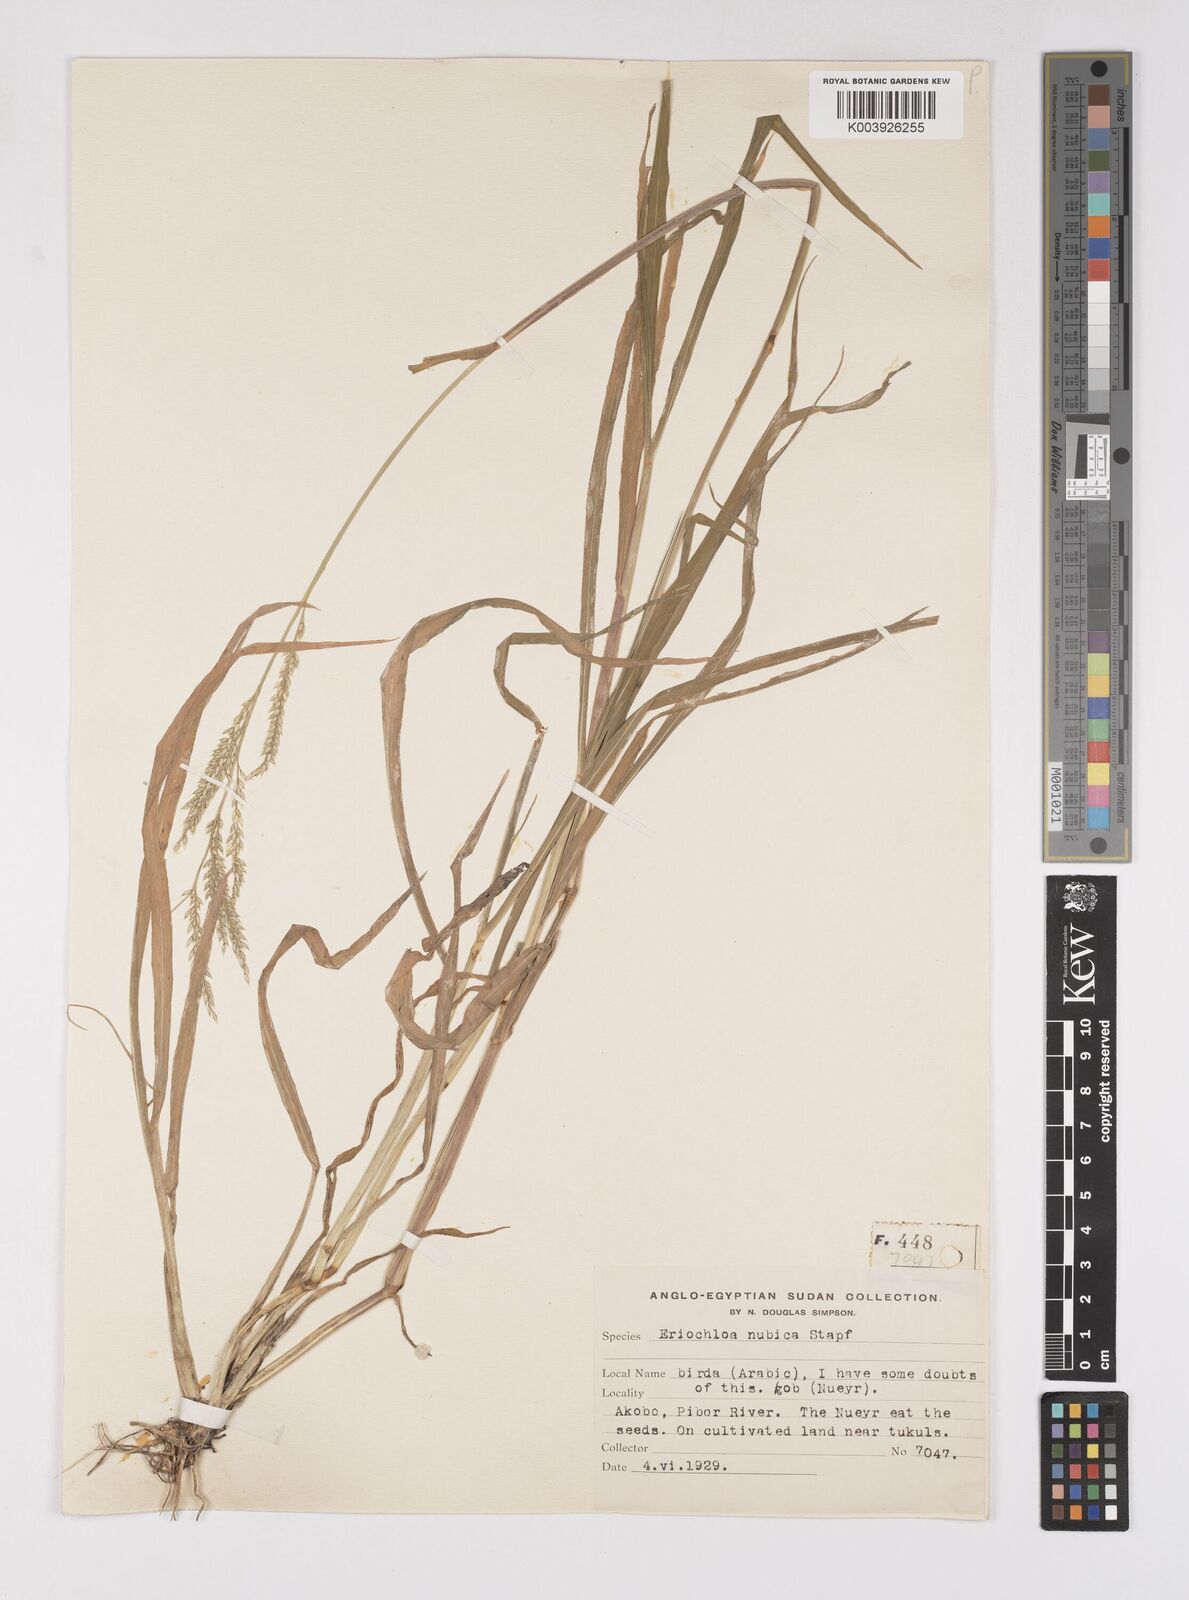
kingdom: Plantae
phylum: Tracheophyta
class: Liliopsida
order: Poales
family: Poaceae
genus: Eriochloa
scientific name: Eriochloa barbatus
